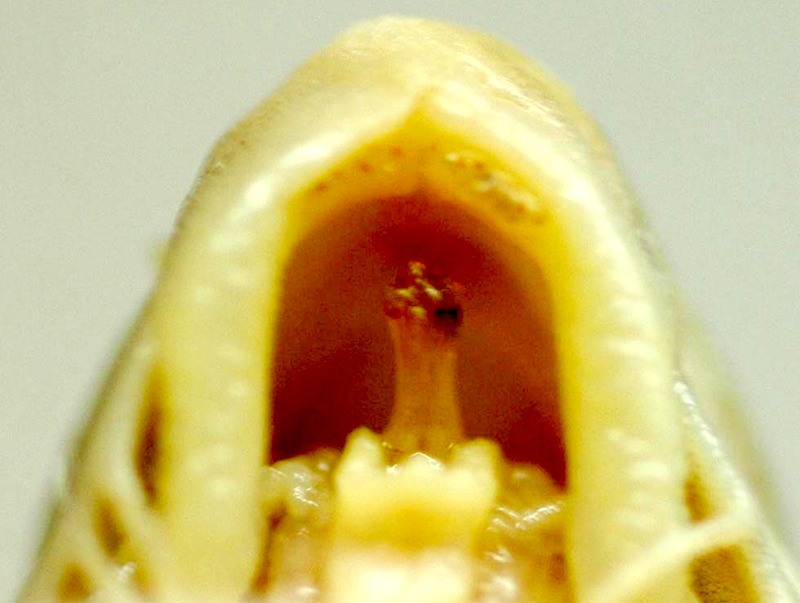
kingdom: Animalia
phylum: Chordata
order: Siluriformes
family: Mochokidae
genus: Synodontis
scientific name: Synodontis clarias
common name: Squeaker
